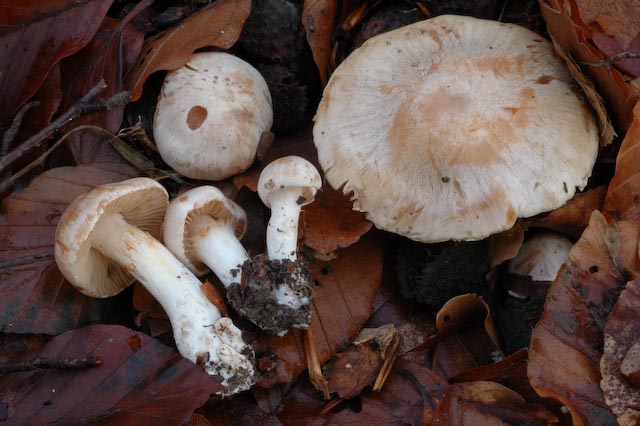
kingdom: Fungi
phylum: Basidiomycota
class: Agaricomycetes
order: Agaricales
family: Cortinariaceae
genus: Thaxterogaster
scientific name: Thaxterogaster leucoluteolus
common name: isabella slørhat
